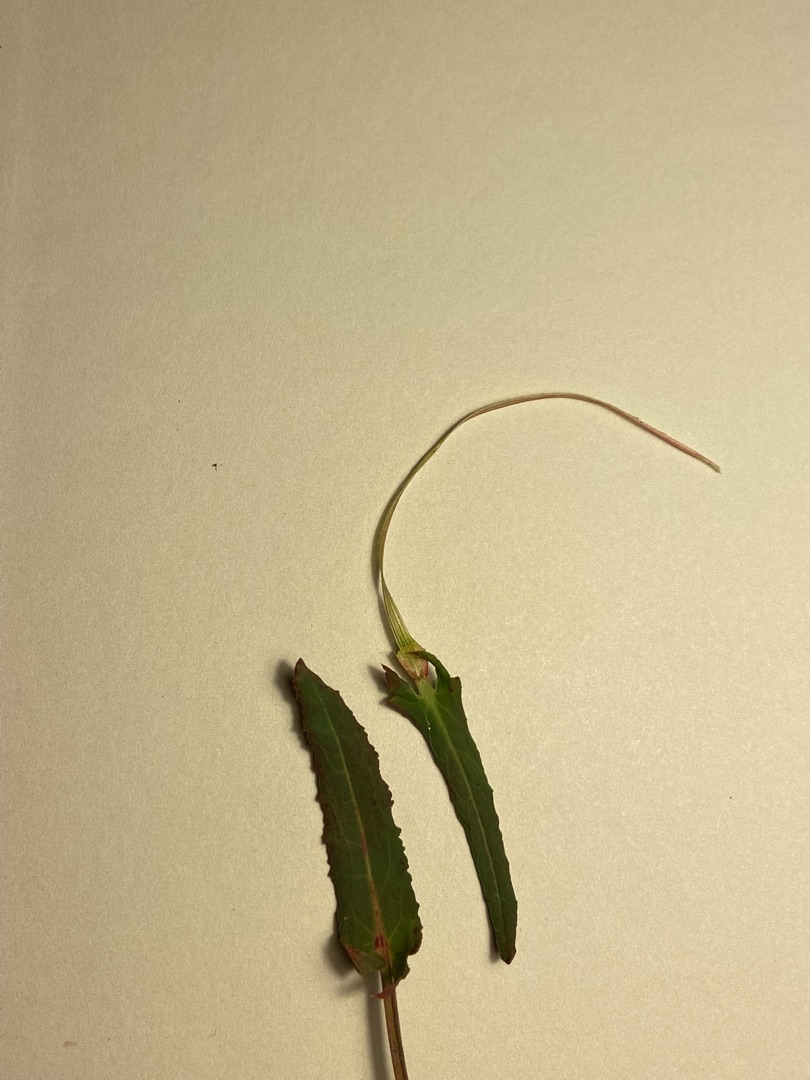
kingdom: Plantae
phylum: Tracheophyta
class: Magnoliopsida
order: Caryophyllales
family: Polygonaceae
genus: Rumex
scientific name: Rumex thyrsiflorus
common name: Dusk-syre
